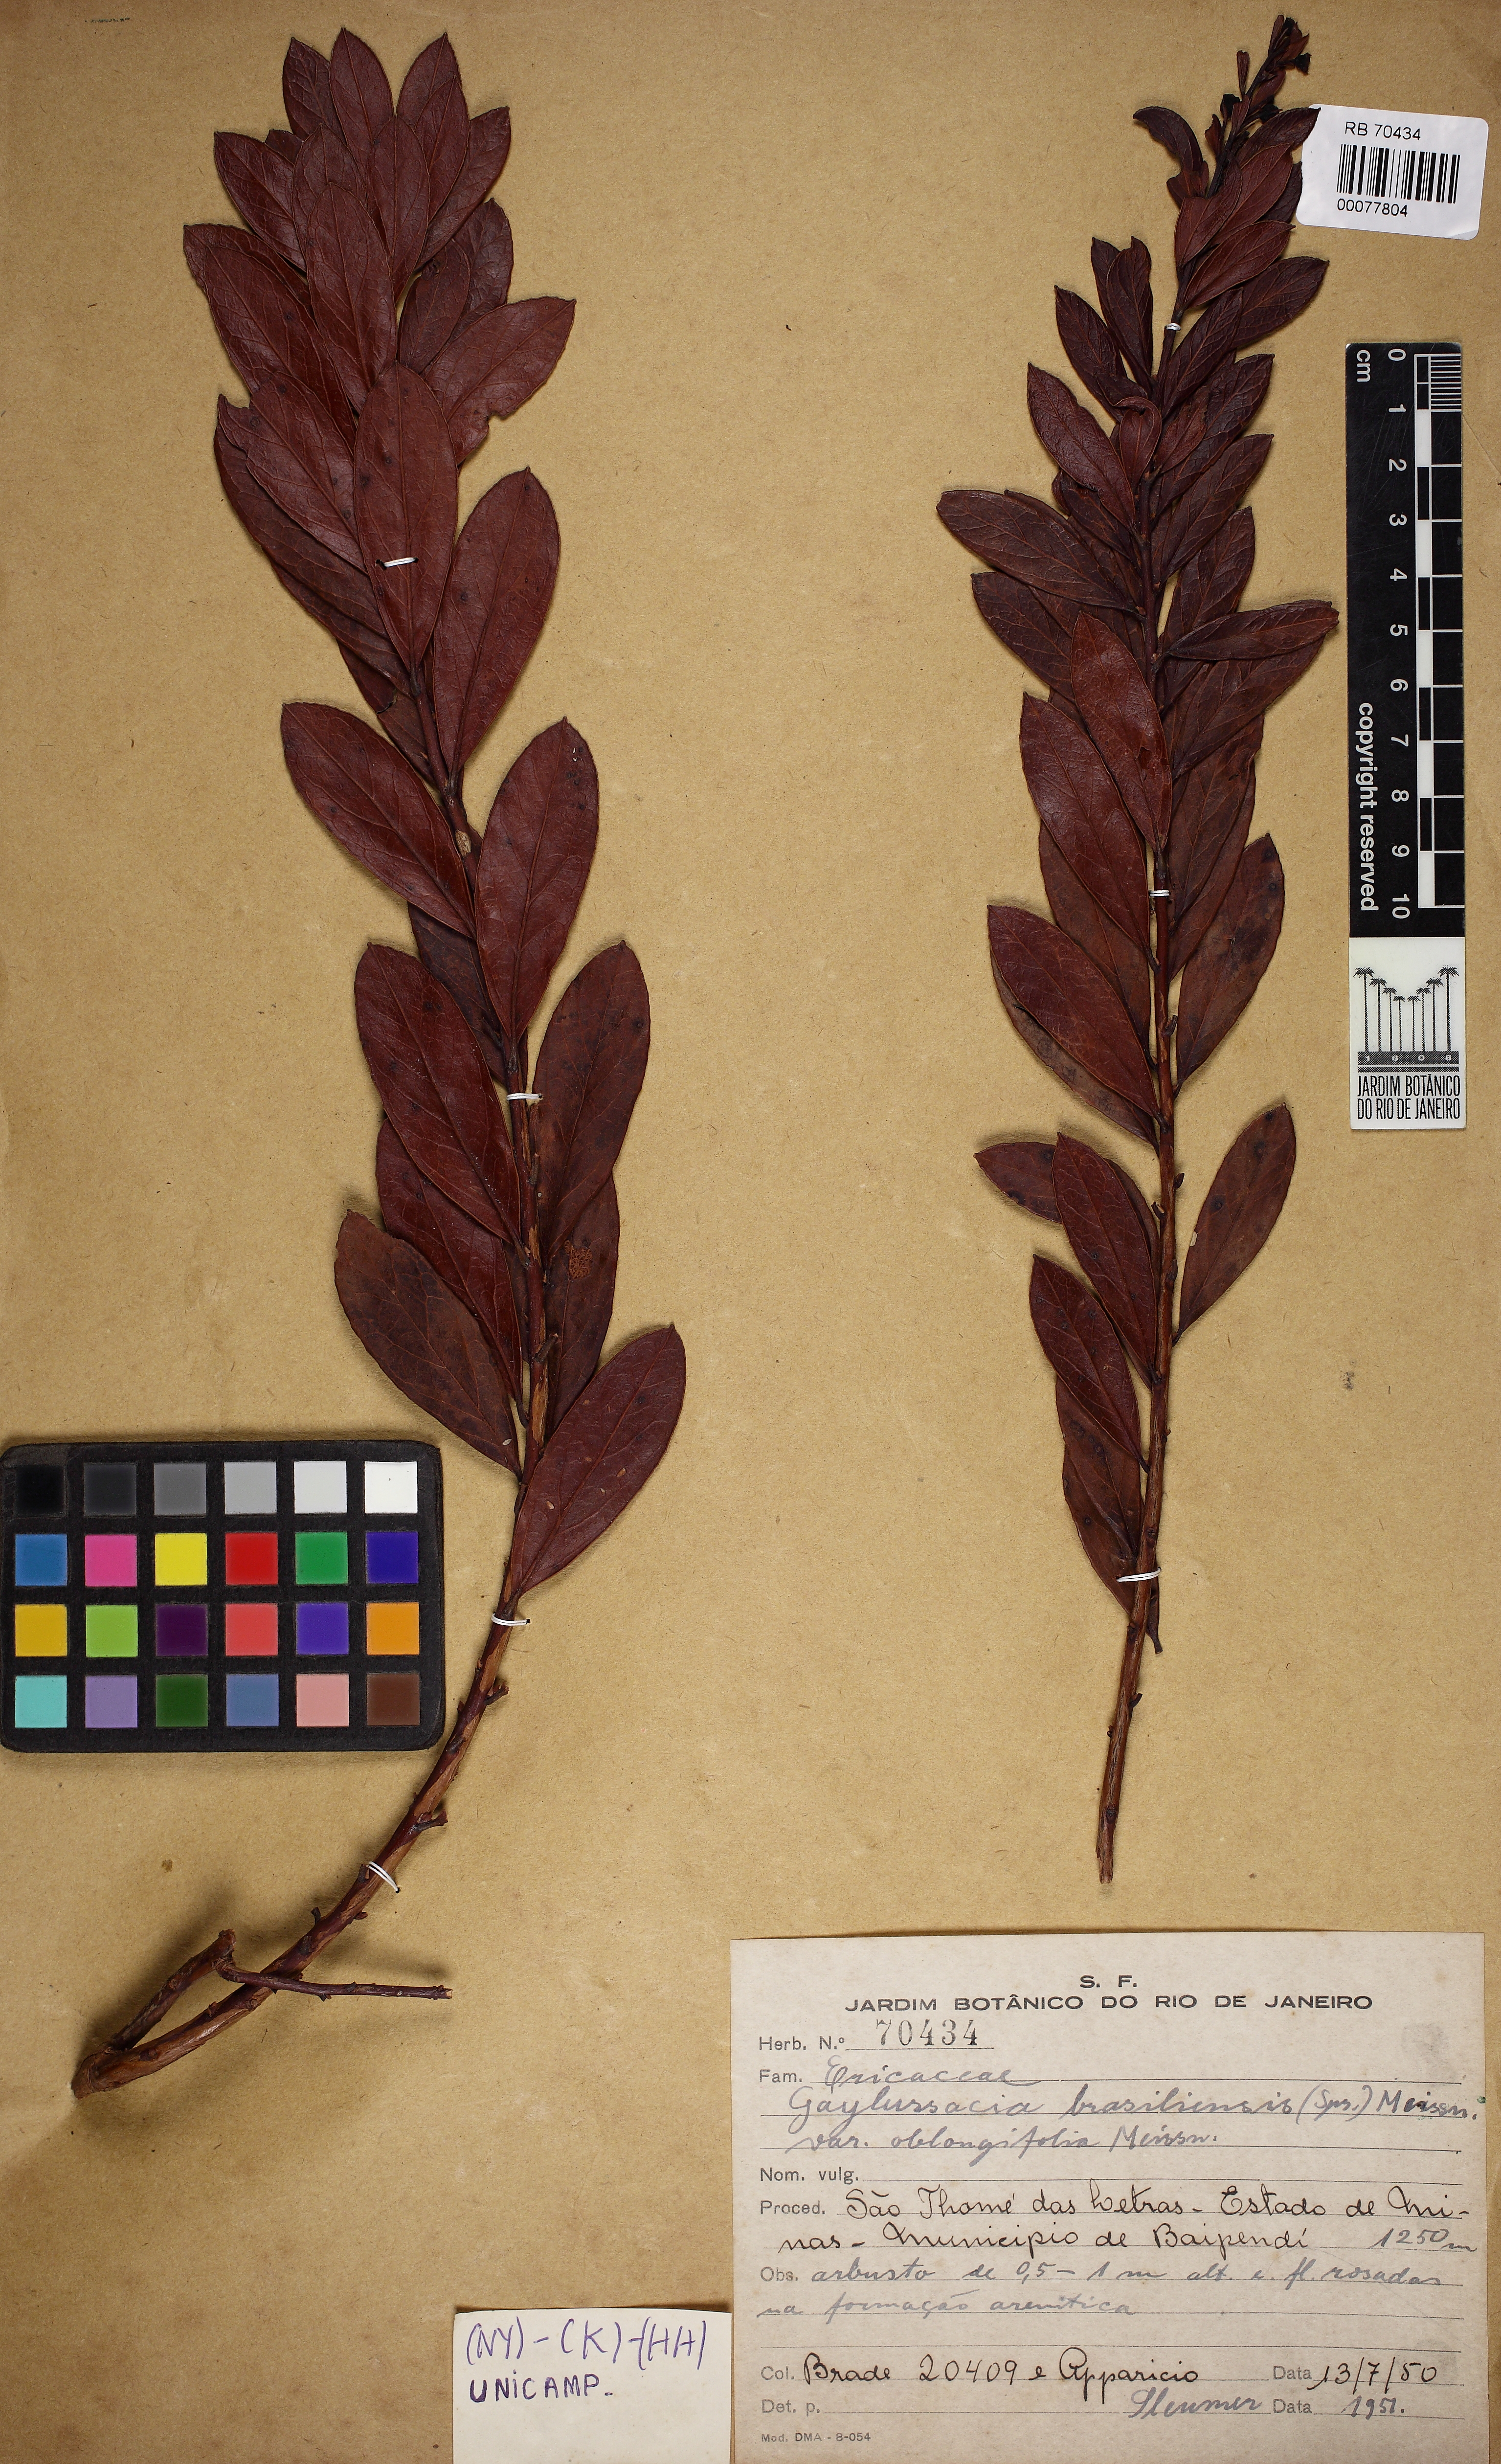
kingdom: Plantae
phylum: Tracheophyta
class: Magnoliopsida
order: Ericales
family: Ericaceae
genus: Gaylussacia
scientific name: Gaylussacia brasiliensis
